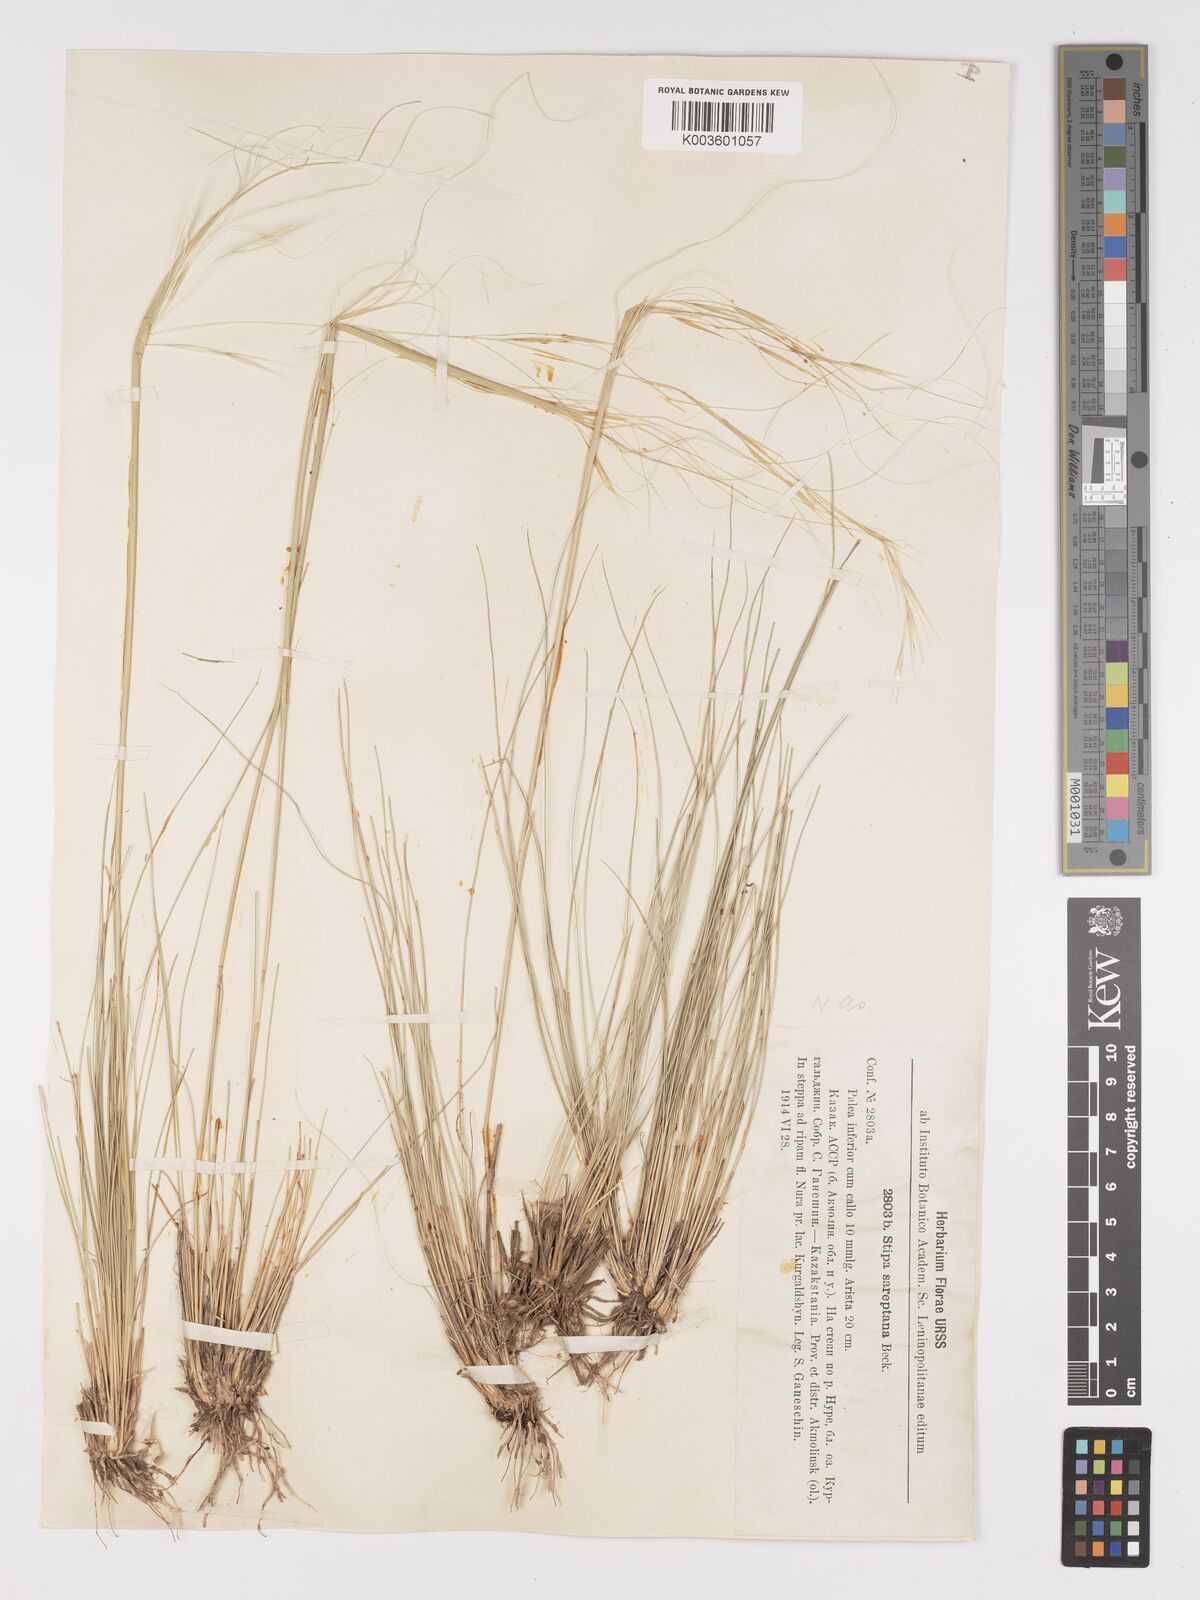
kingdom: Plantae
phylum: Tracheophyta
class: Liliopsida
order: Poales
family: Poaceae
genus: Stipa
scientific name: Stipa sareptana
